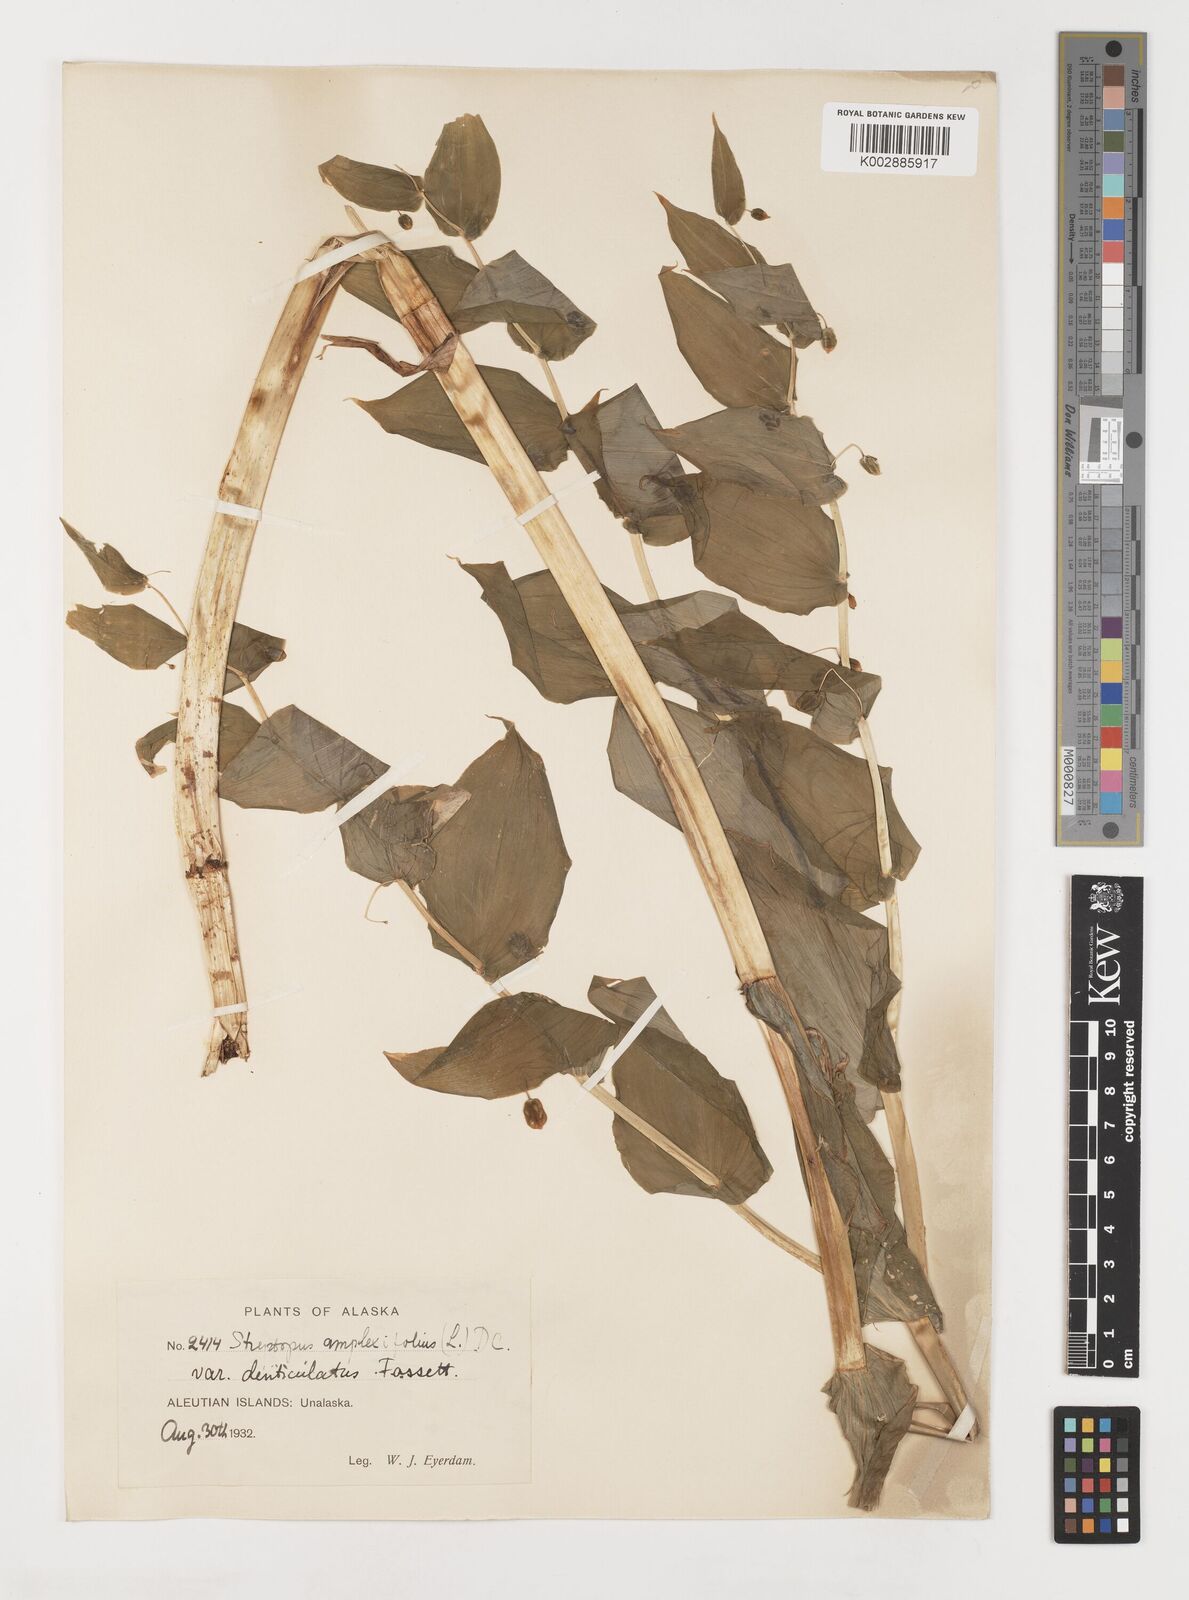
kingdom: Plantae
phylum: Tracheophyta
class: Liliopsida
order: Liliales
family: Liliaceae
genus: Streptopus
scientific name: Streptopus
